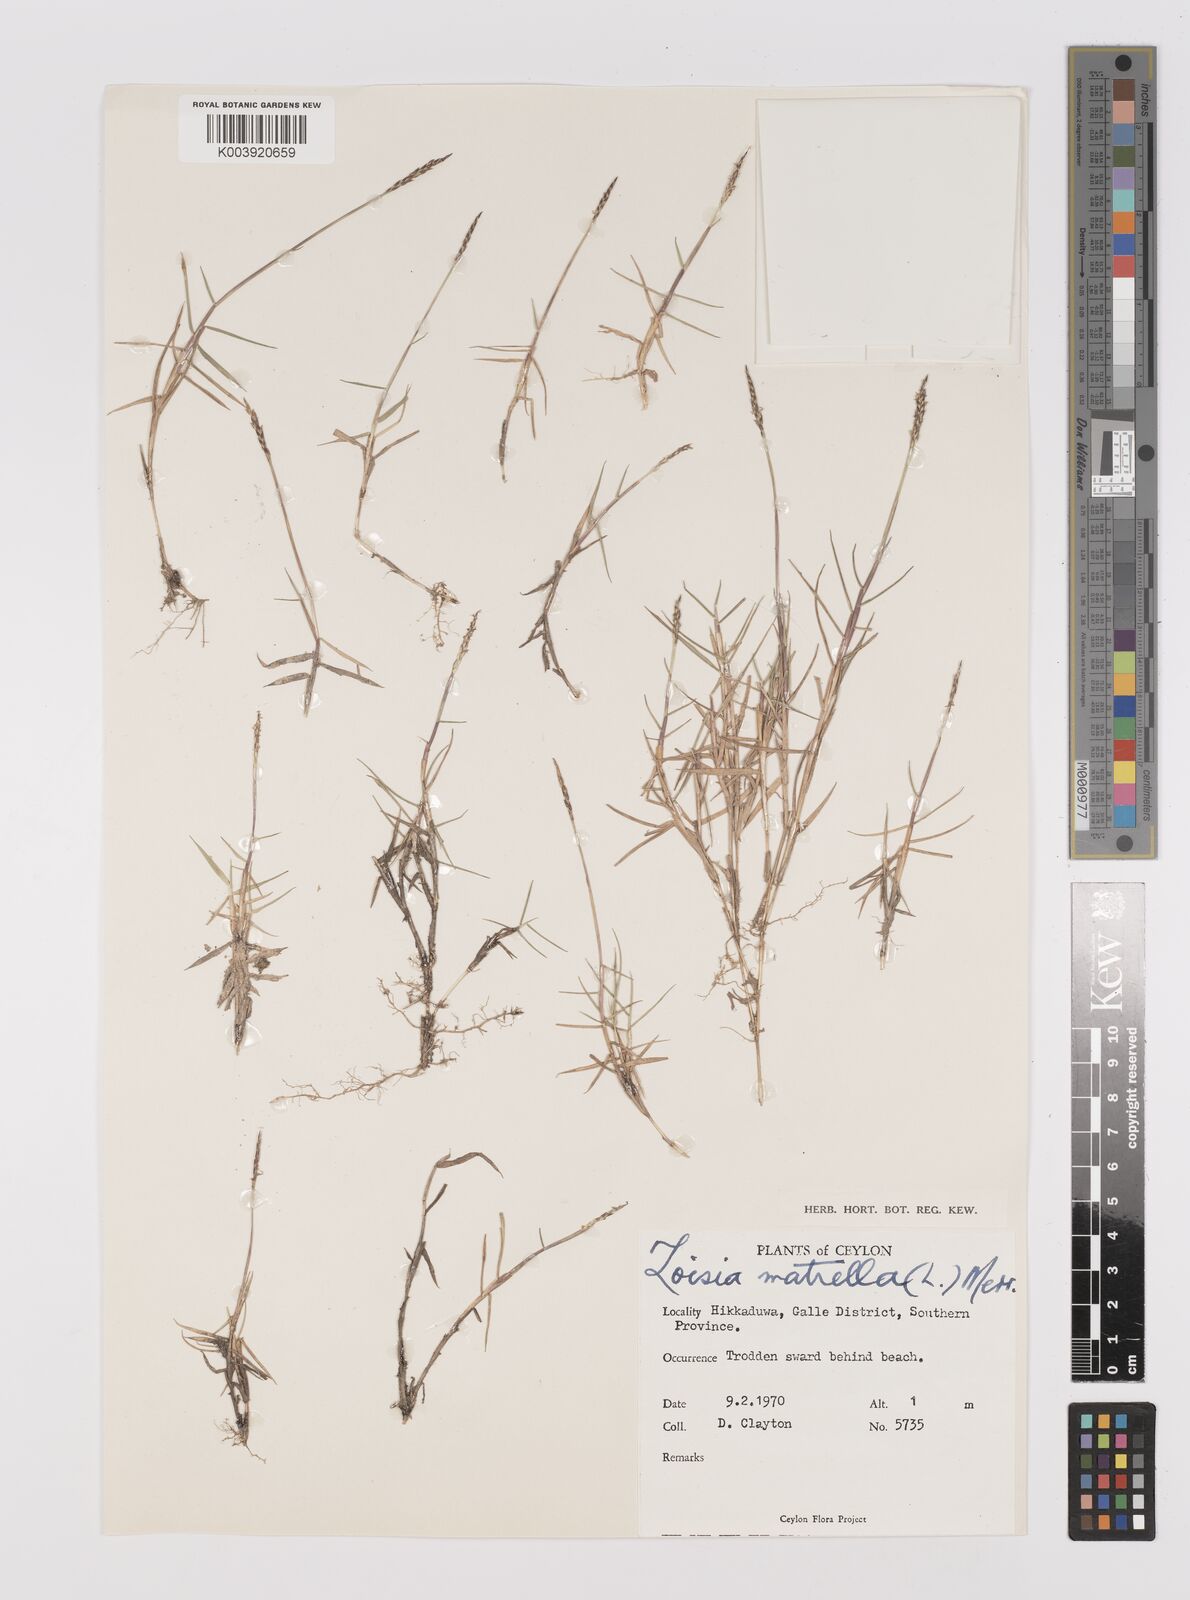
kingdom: Plantae
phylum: Tracheophyta
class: Liliopsida
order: Poales
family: Poaceae
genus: Zoysia
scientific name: Zoysia matrella
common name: Manila grass
